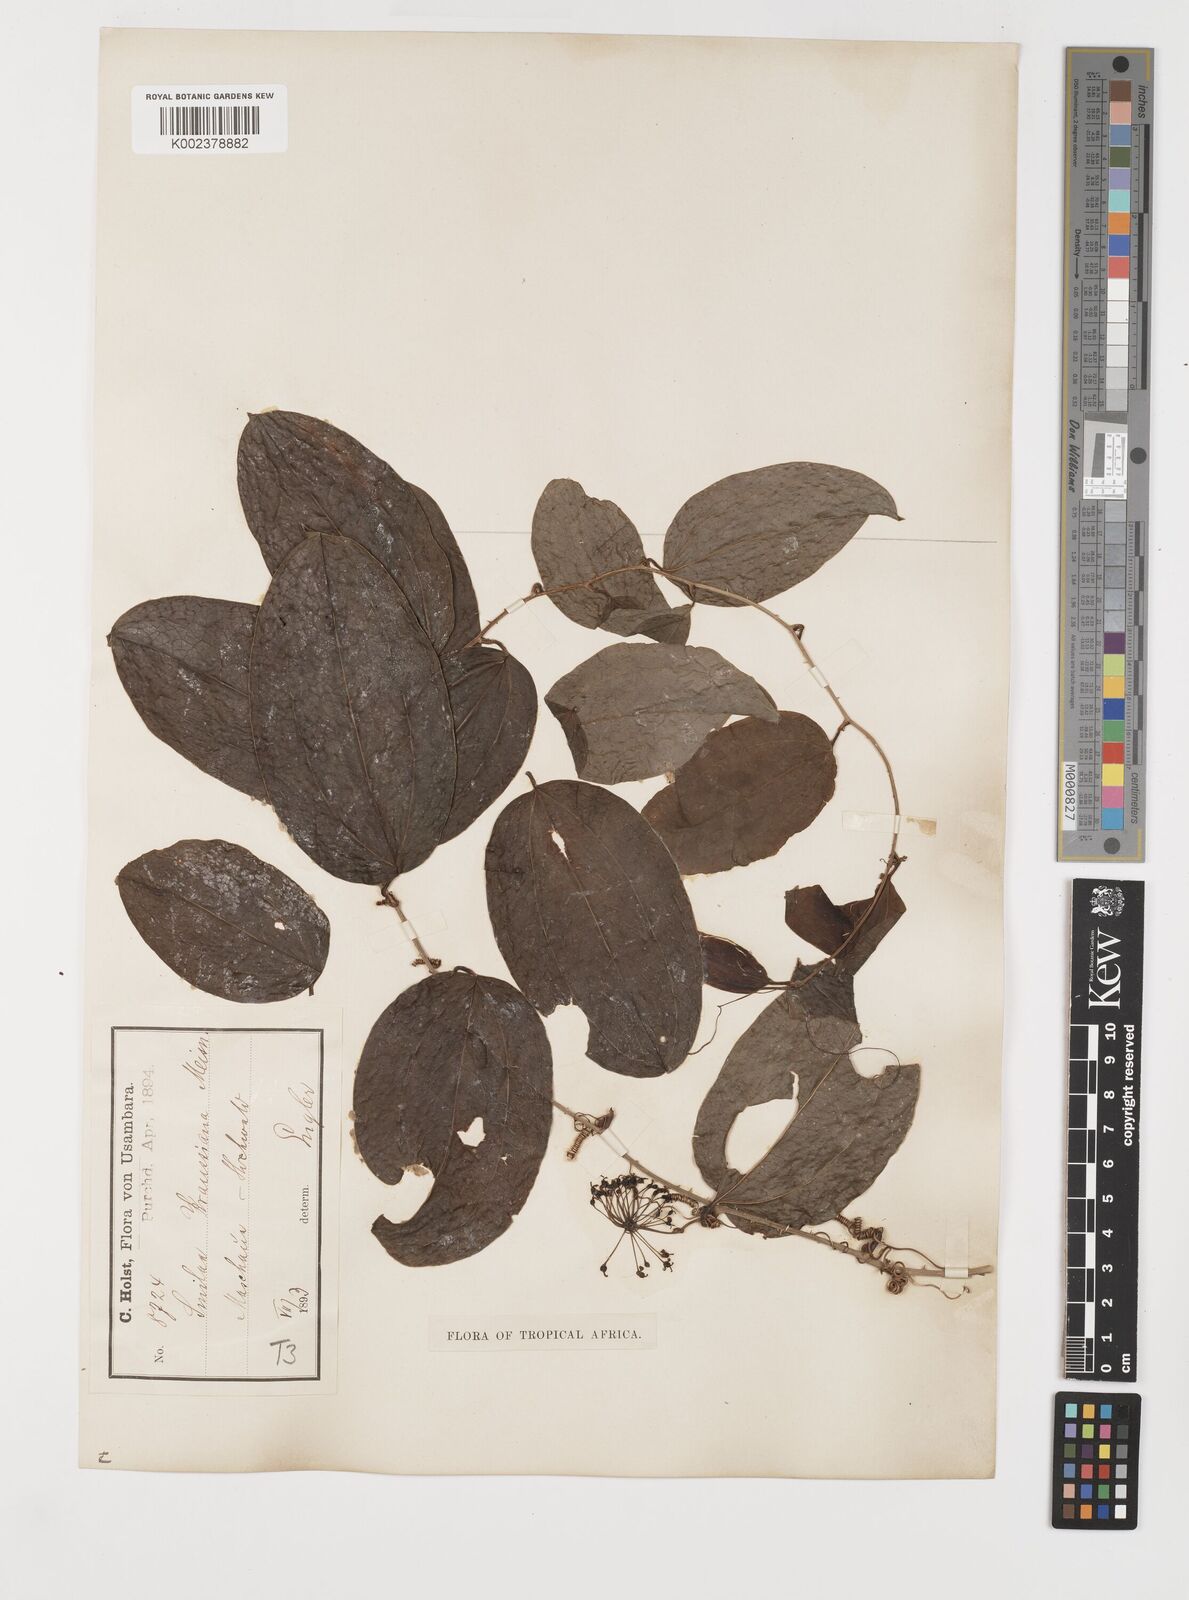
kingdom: Plantae
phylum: Tracheophyta
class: Liliopsida
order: Liliales
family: Smilacaceae
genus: Smilax
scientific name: Smilax anceps
